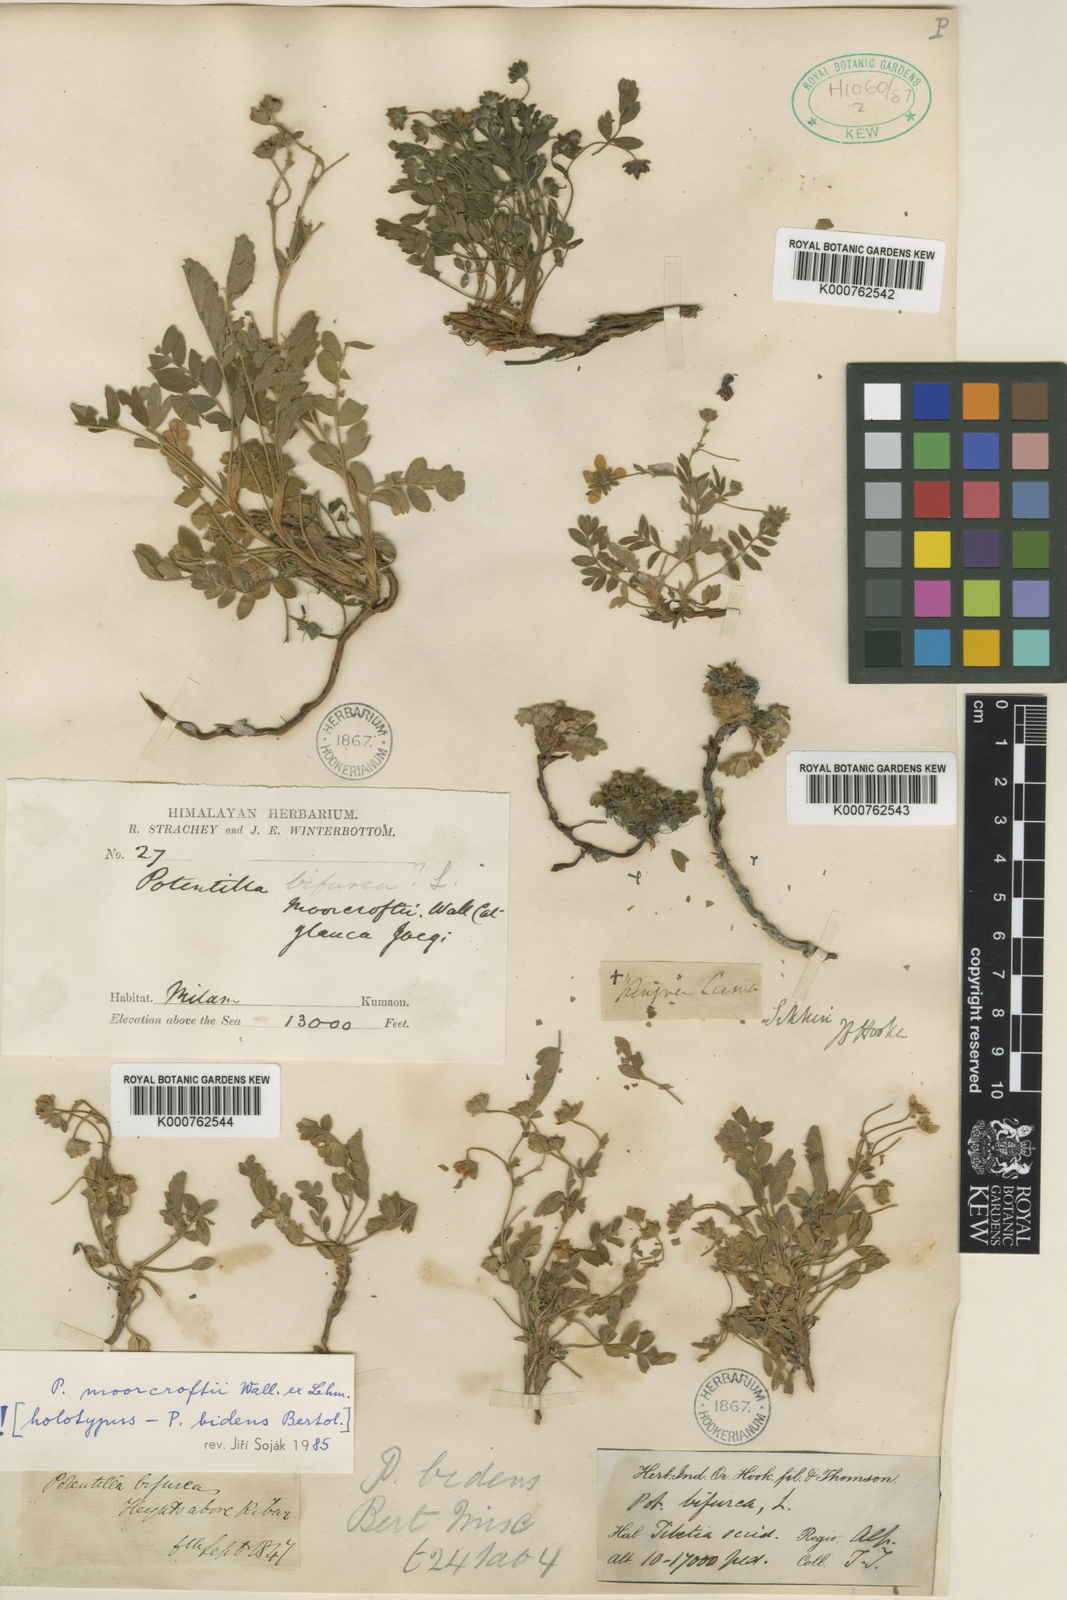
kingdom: Plantae
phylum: Tracheophyta
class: Magnoliopsida
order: Rosales
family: Rosaceae
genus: Potentilla
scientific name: Potentilla
